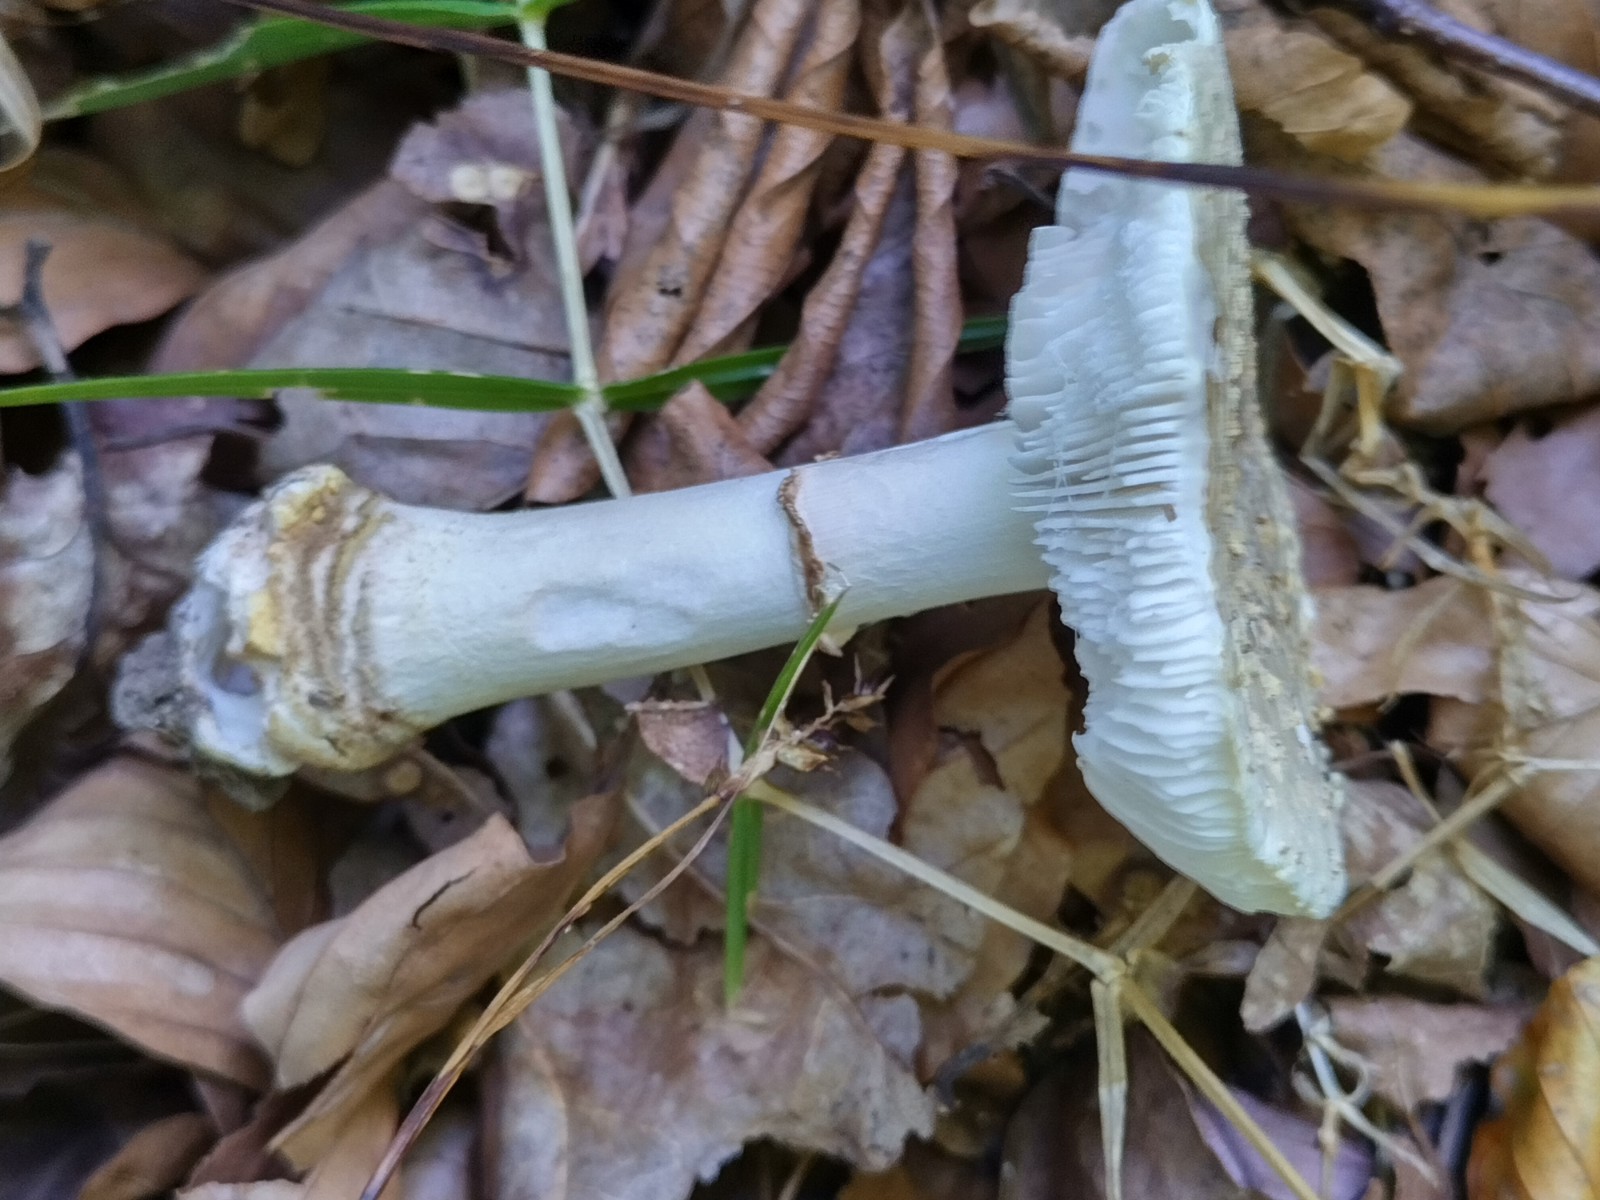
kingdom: Fungi
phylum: Basidiomycota
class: Agaricomycetes
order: Agaricales
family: Amanitaceae
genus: Amanita
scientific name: Amanita franchetii
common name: gulrandet fluesvamp
